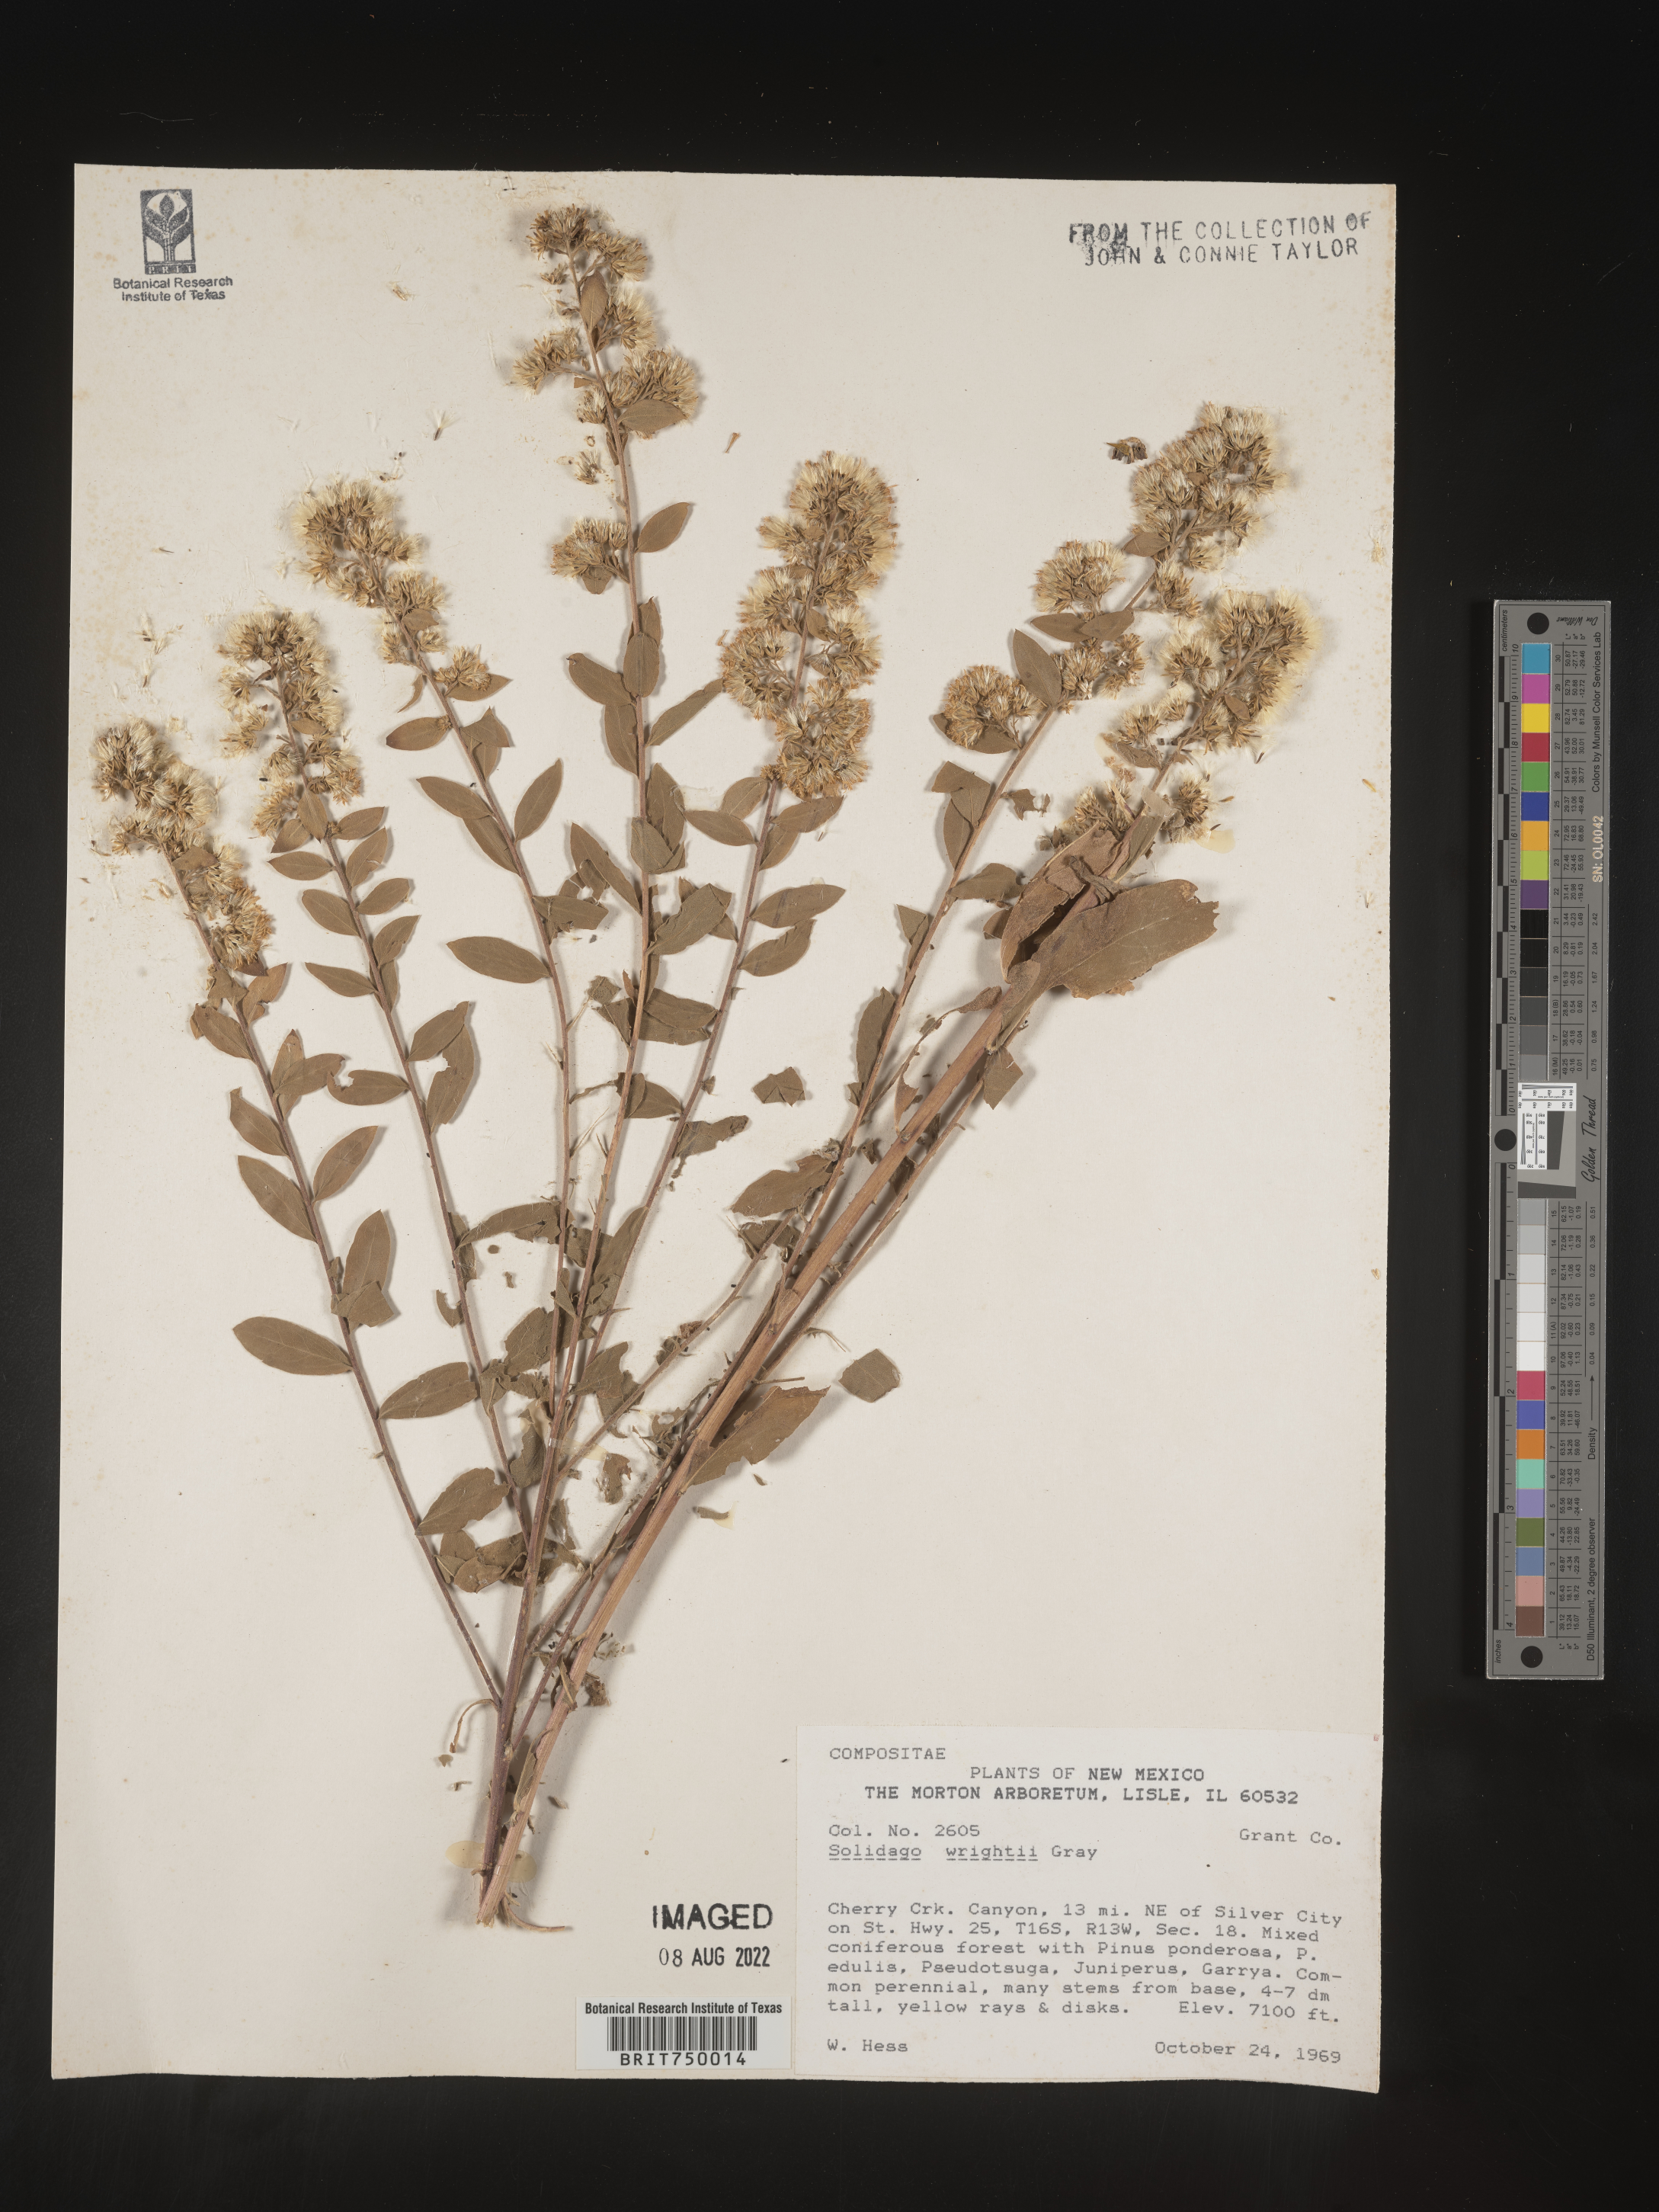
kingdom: Plantae
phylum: Tracheophyta
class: Magnoliopsida
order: Asterales
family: Asteraceae
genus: Solidago
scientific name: Solidago wrightii
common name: Wright's goldenrod
